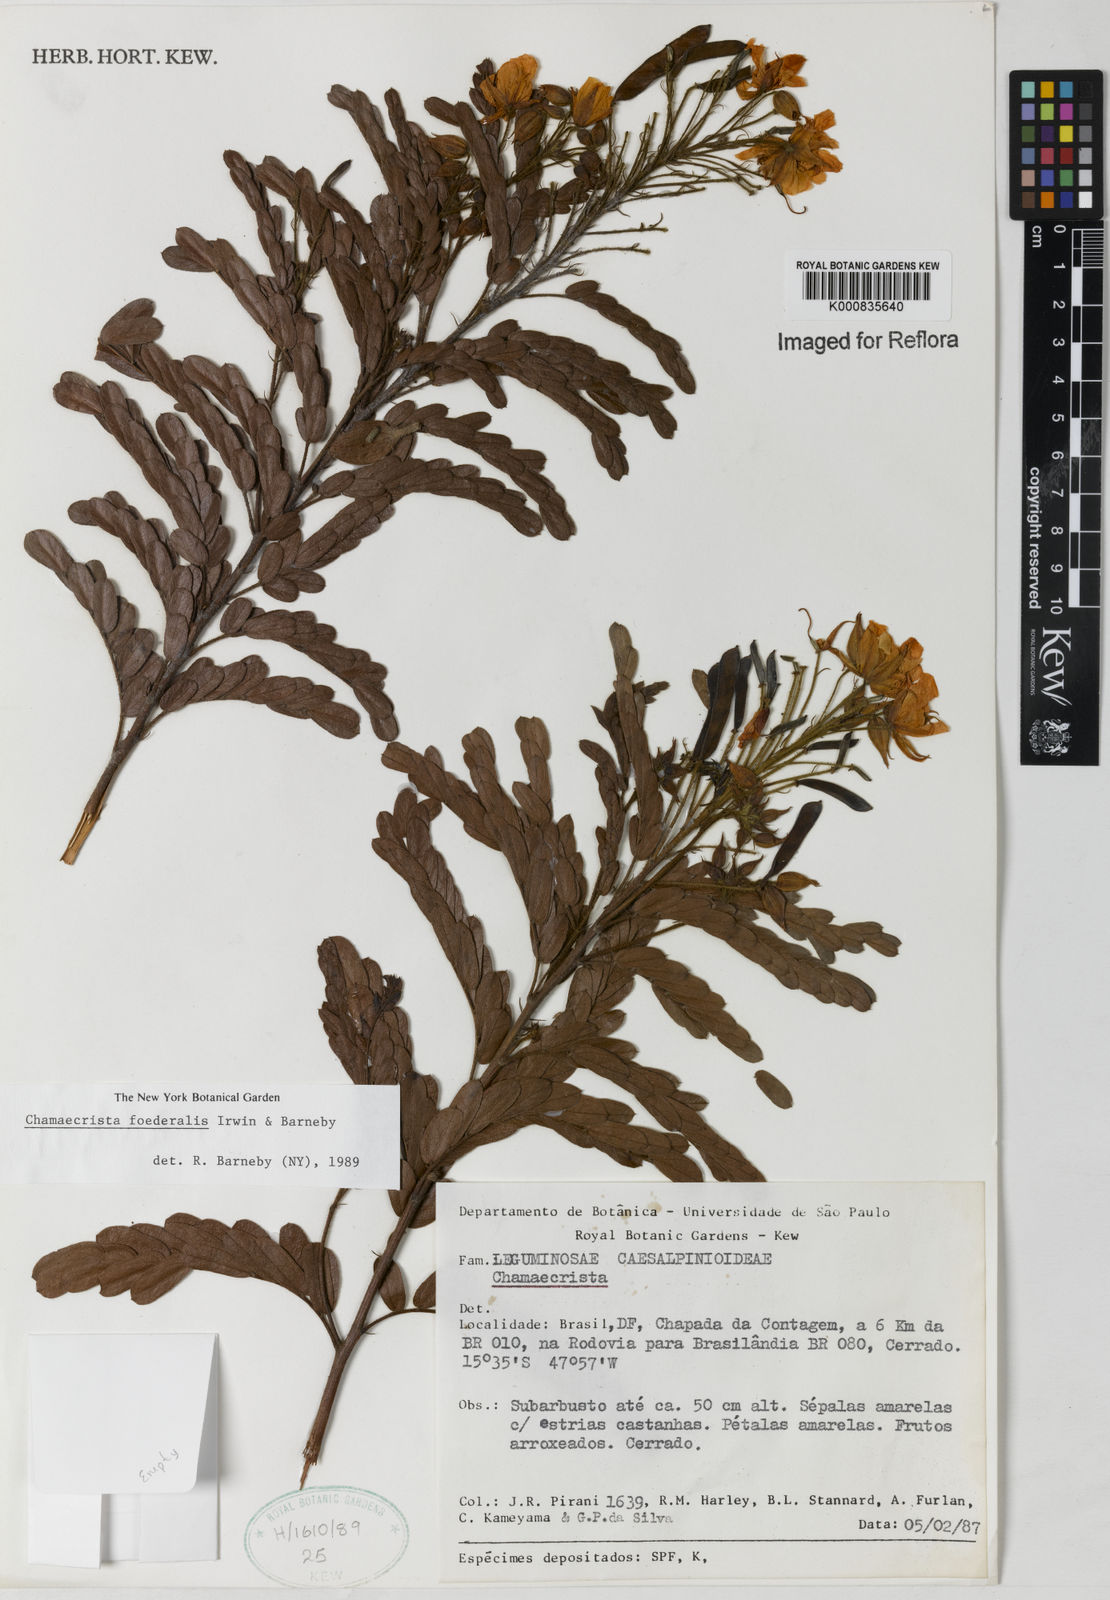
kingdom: Plantae
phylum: Tracheophyta
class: Magnoliopsida
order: Fabales
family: Fabaceae
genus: Chamaecrista
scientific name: Chamaecrista foederalis
